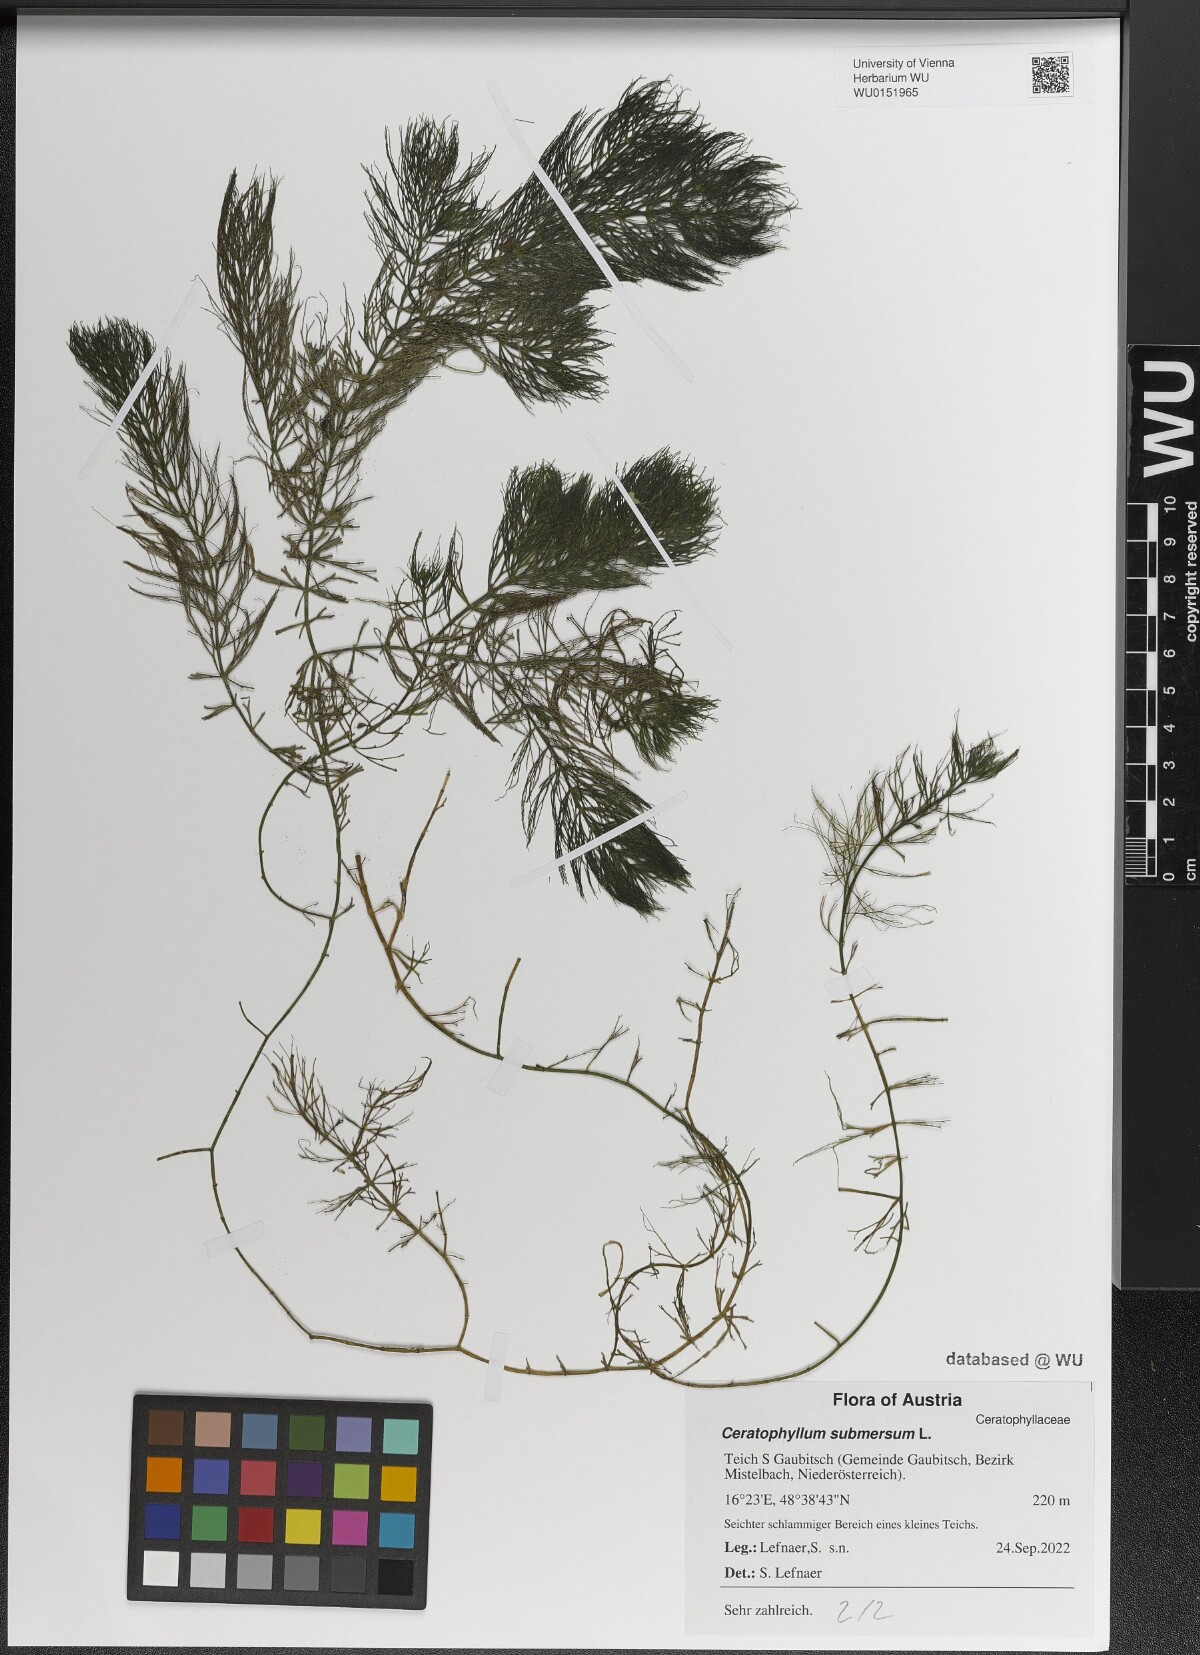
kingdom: Plantae
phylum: Tracheophyta
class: Magnoliopsida
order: Ceratophyllales
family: Ceratophyllaceae
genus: Ceratophyllum
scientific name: Ceratophyllum submersum
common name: Soft hornwort
